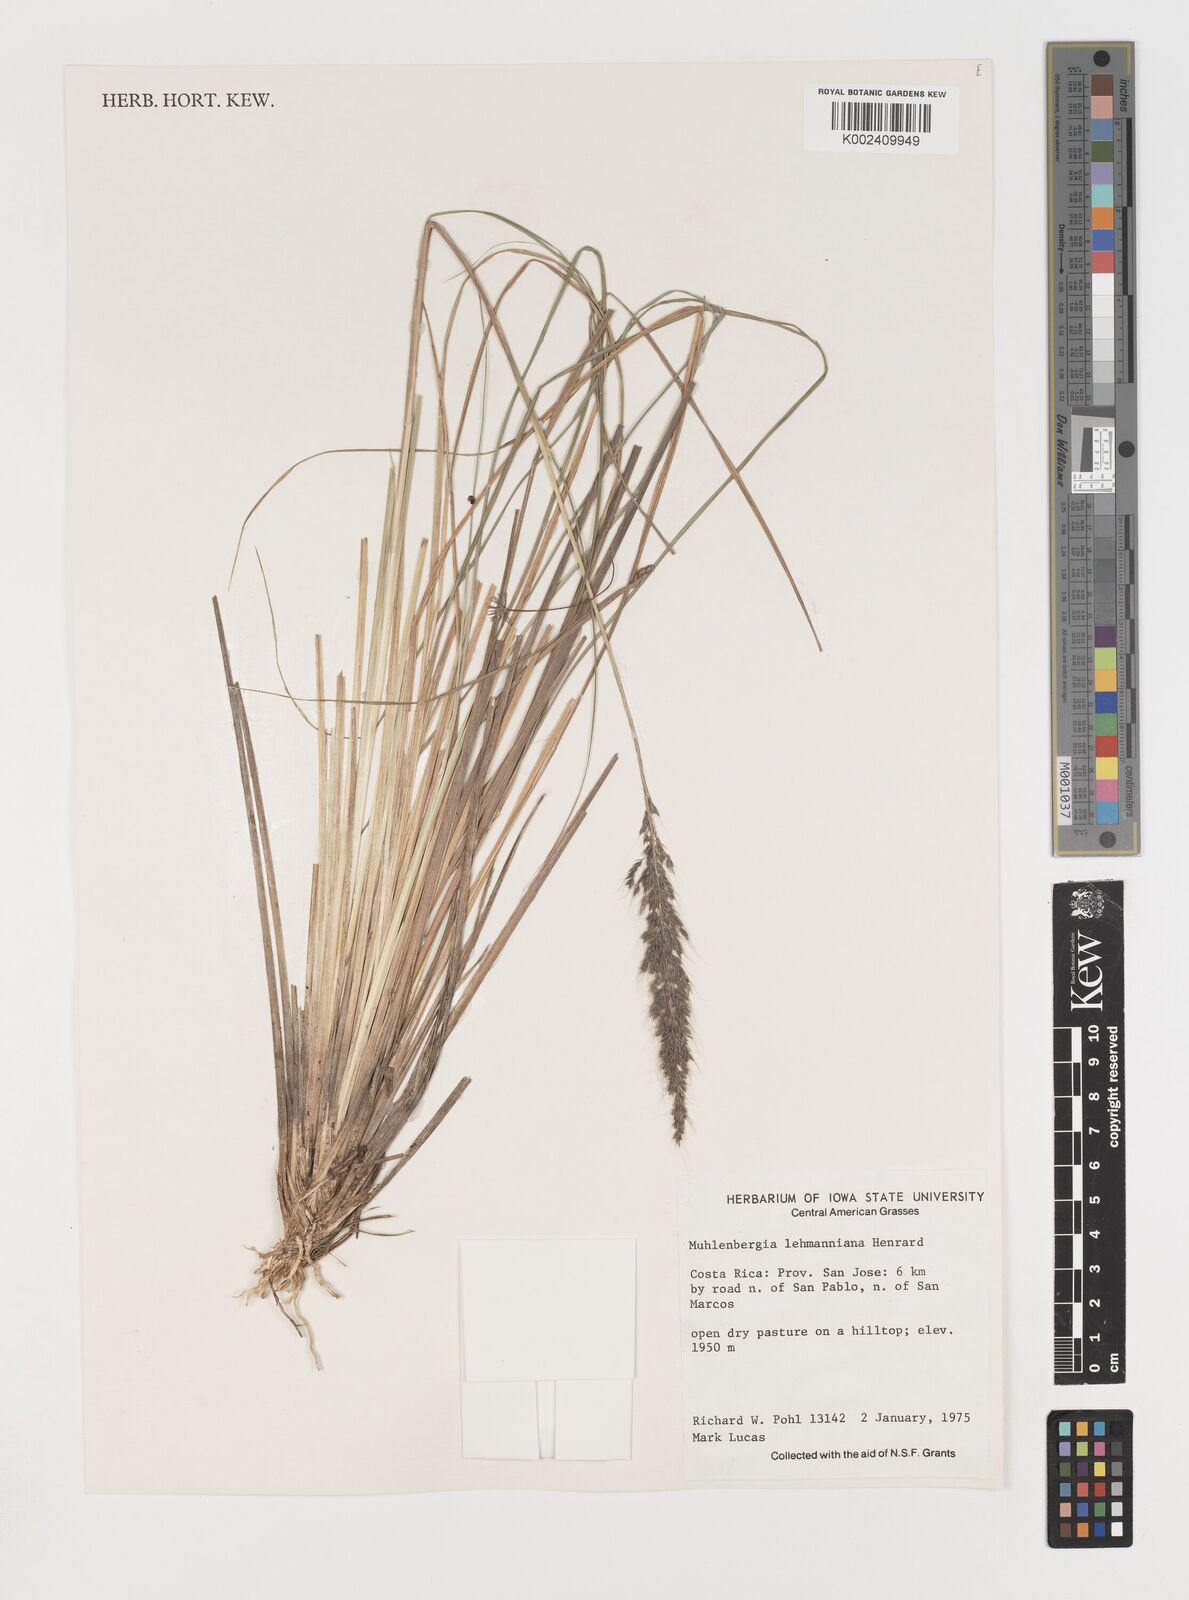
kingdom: Plantae
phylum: Tracheophyta
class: Liliopsida
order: Poales
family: Poaceae
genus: Muhlenbergia
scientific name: Muhlenbergia lehmanniana
